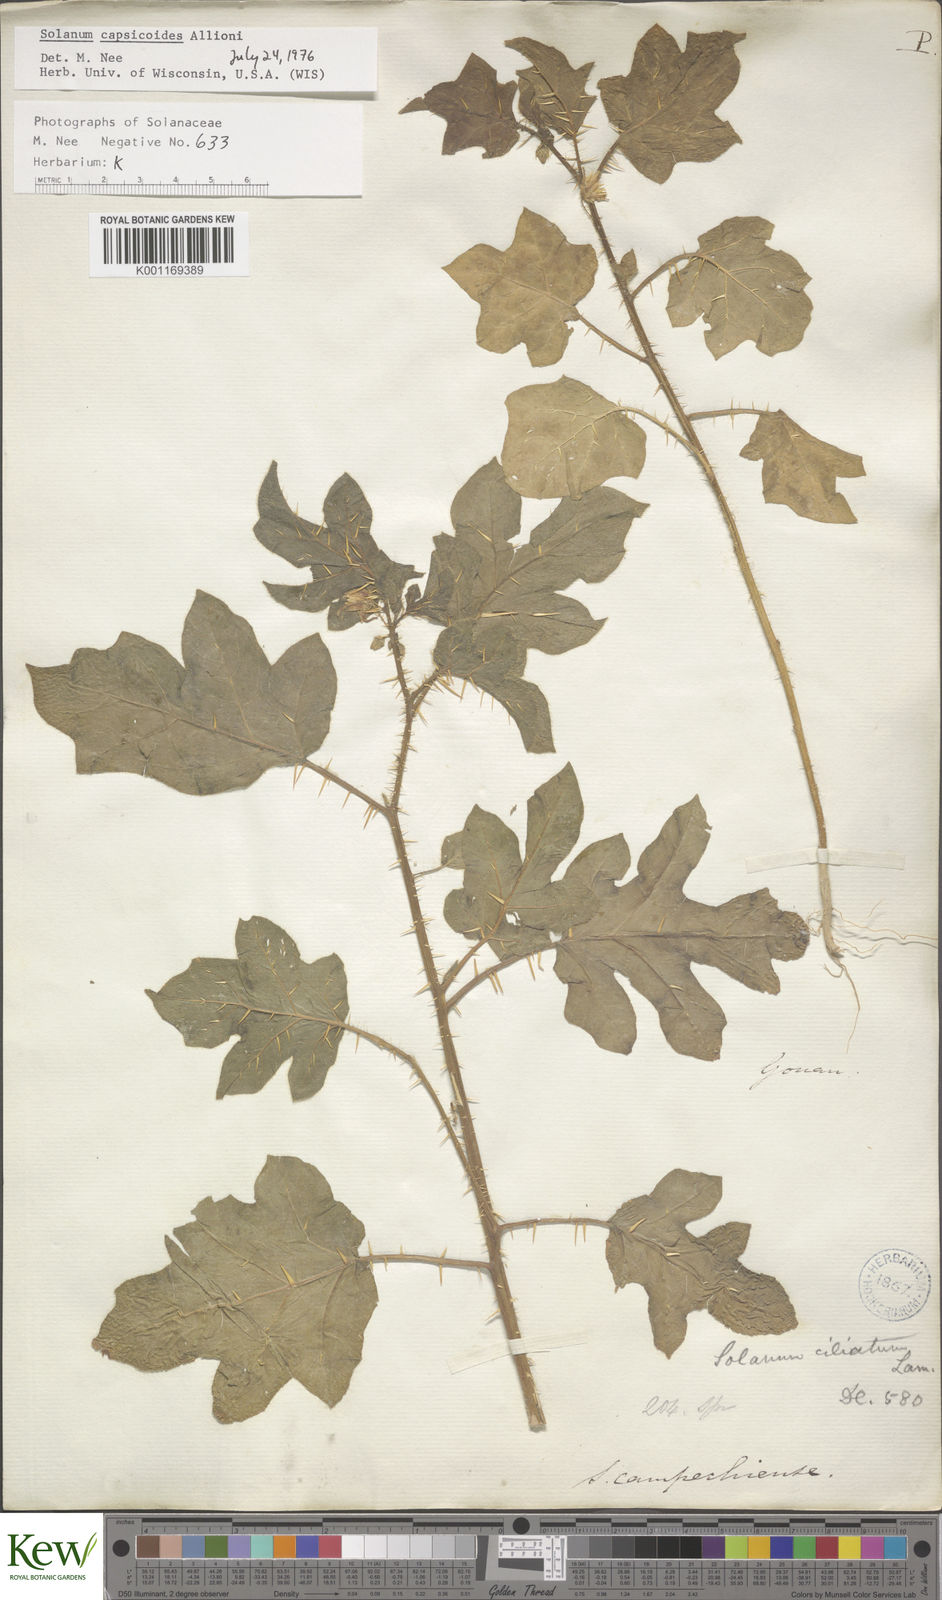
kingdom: Plantae
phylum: Tracheophyta
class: Magnoliopsida
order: Solanales
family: Solanaceae
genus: Solanum
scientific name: Solanum capsicoides
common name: Cockroach berry
